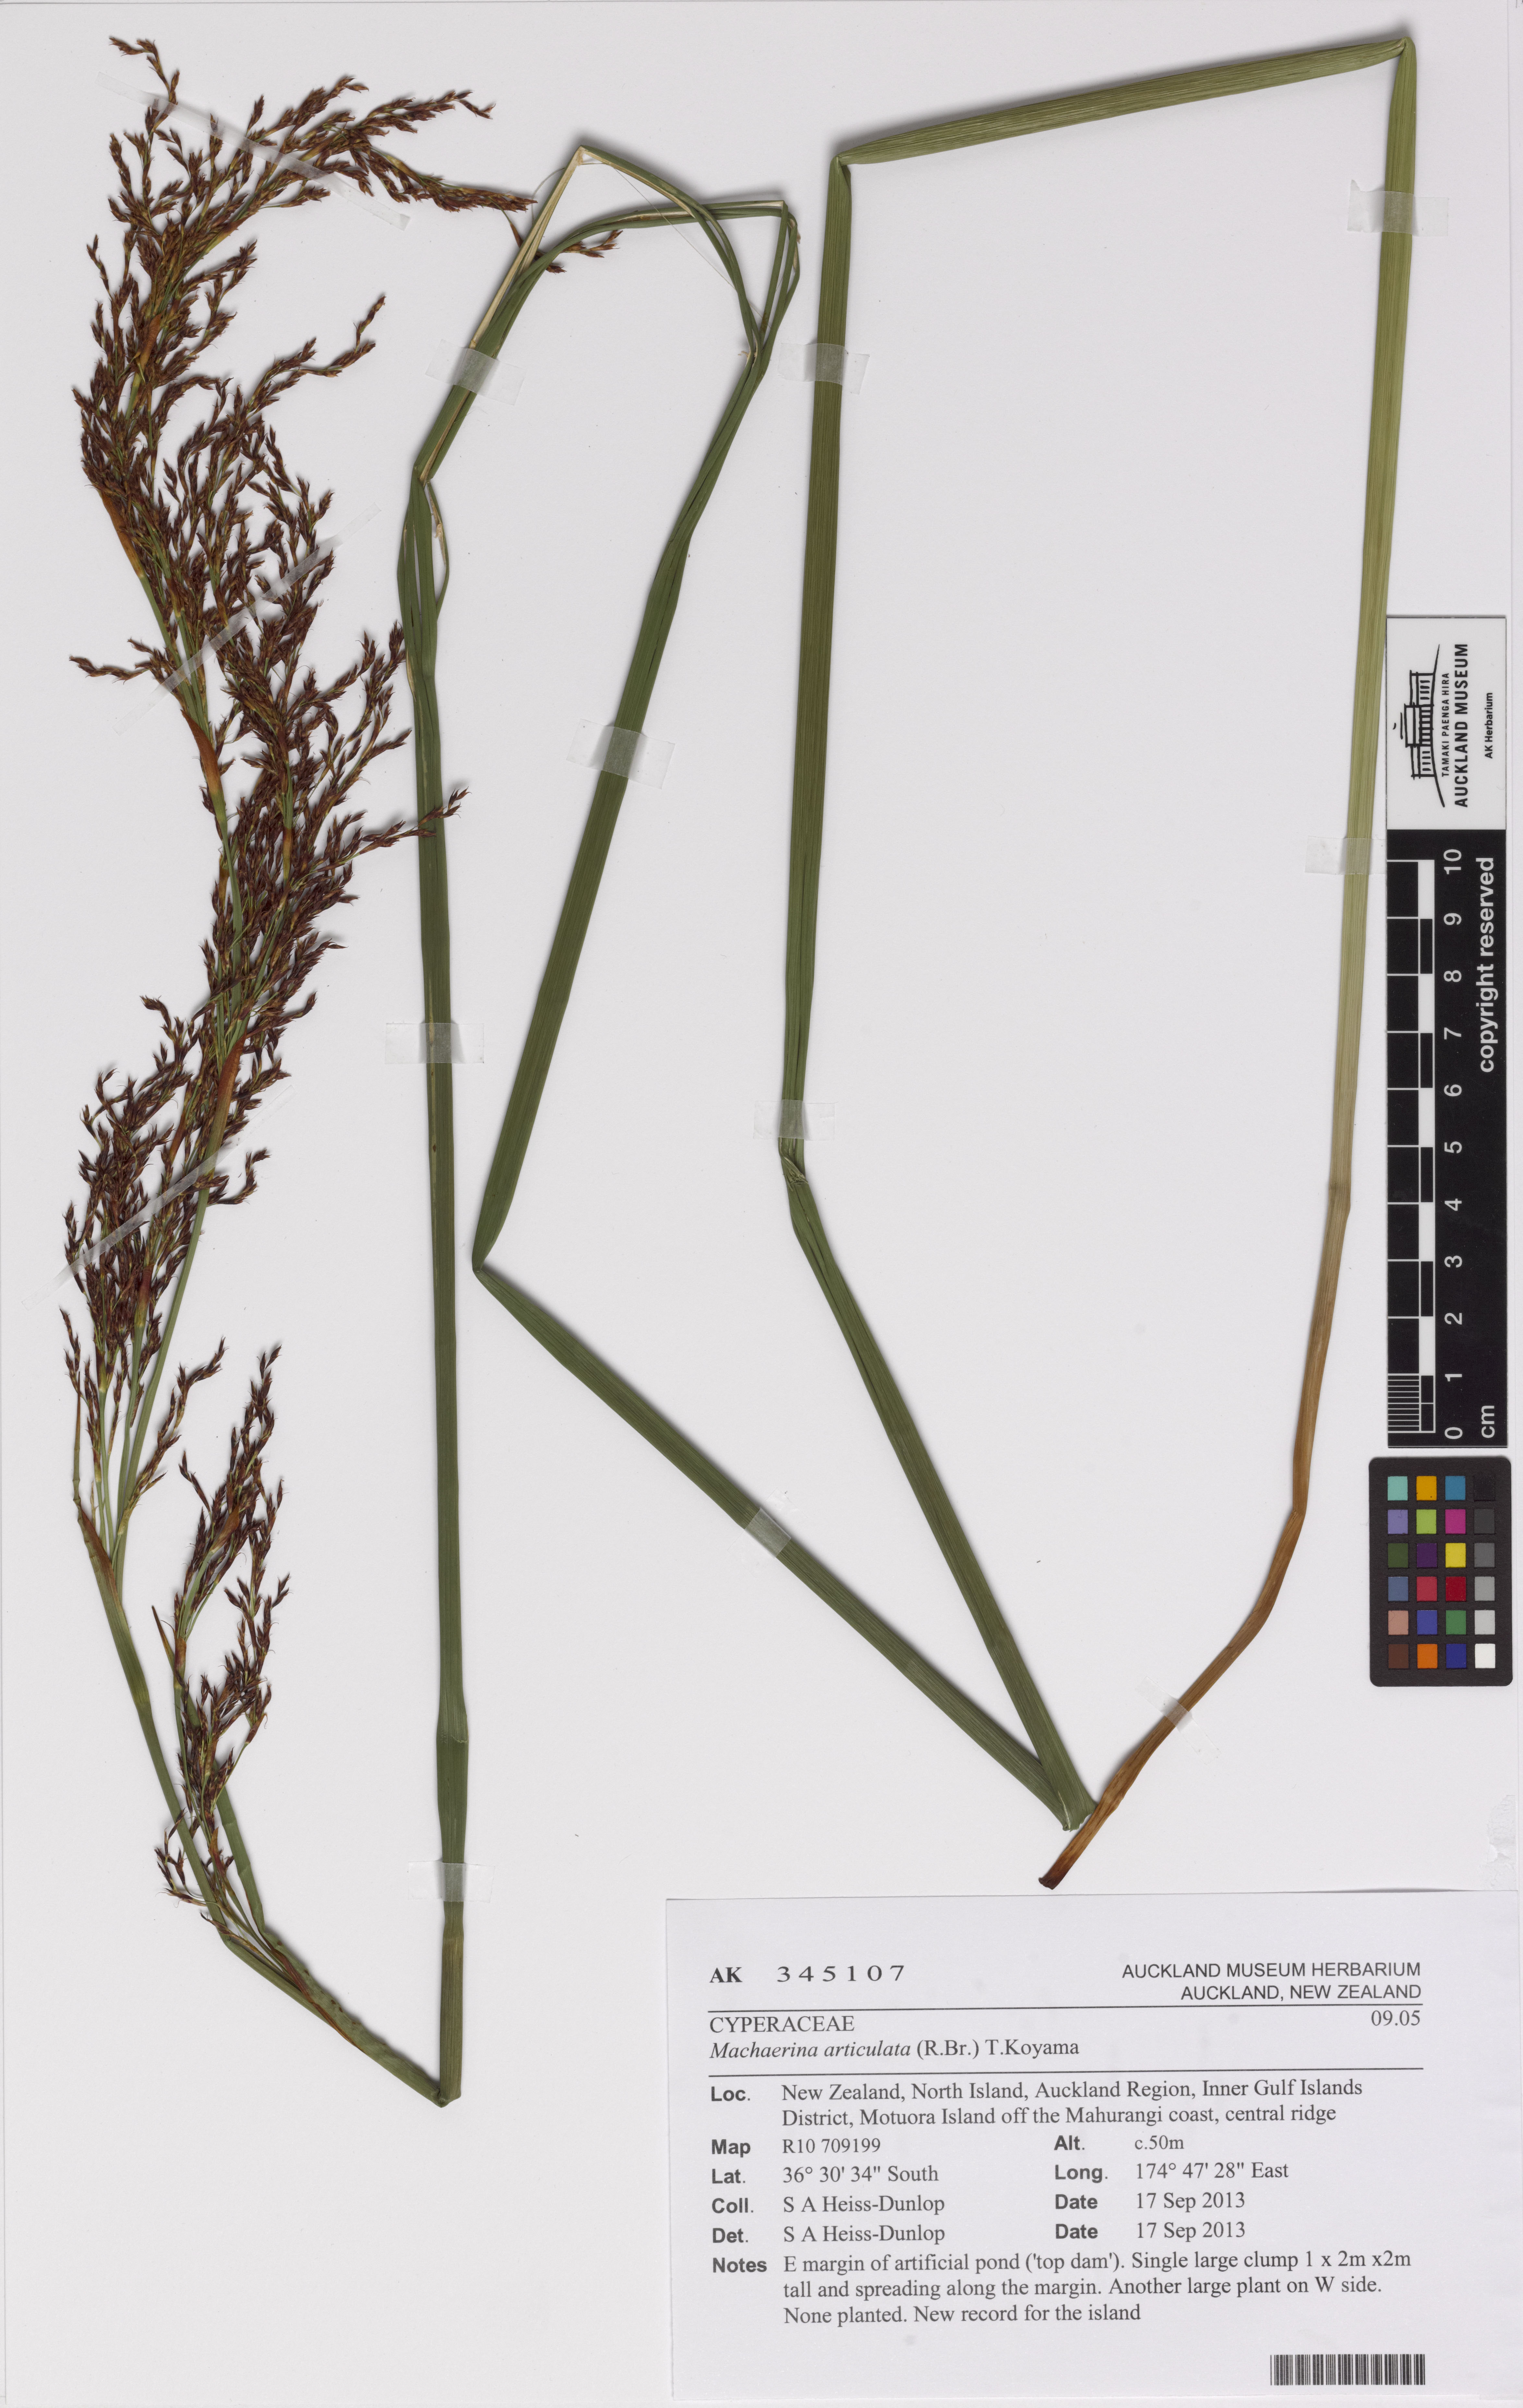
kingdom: Plantae
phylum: Tracheophyta
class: Liliopsida
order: Poales
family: Cyperaceae
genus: Machaerina
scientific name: Machaerina articulata
